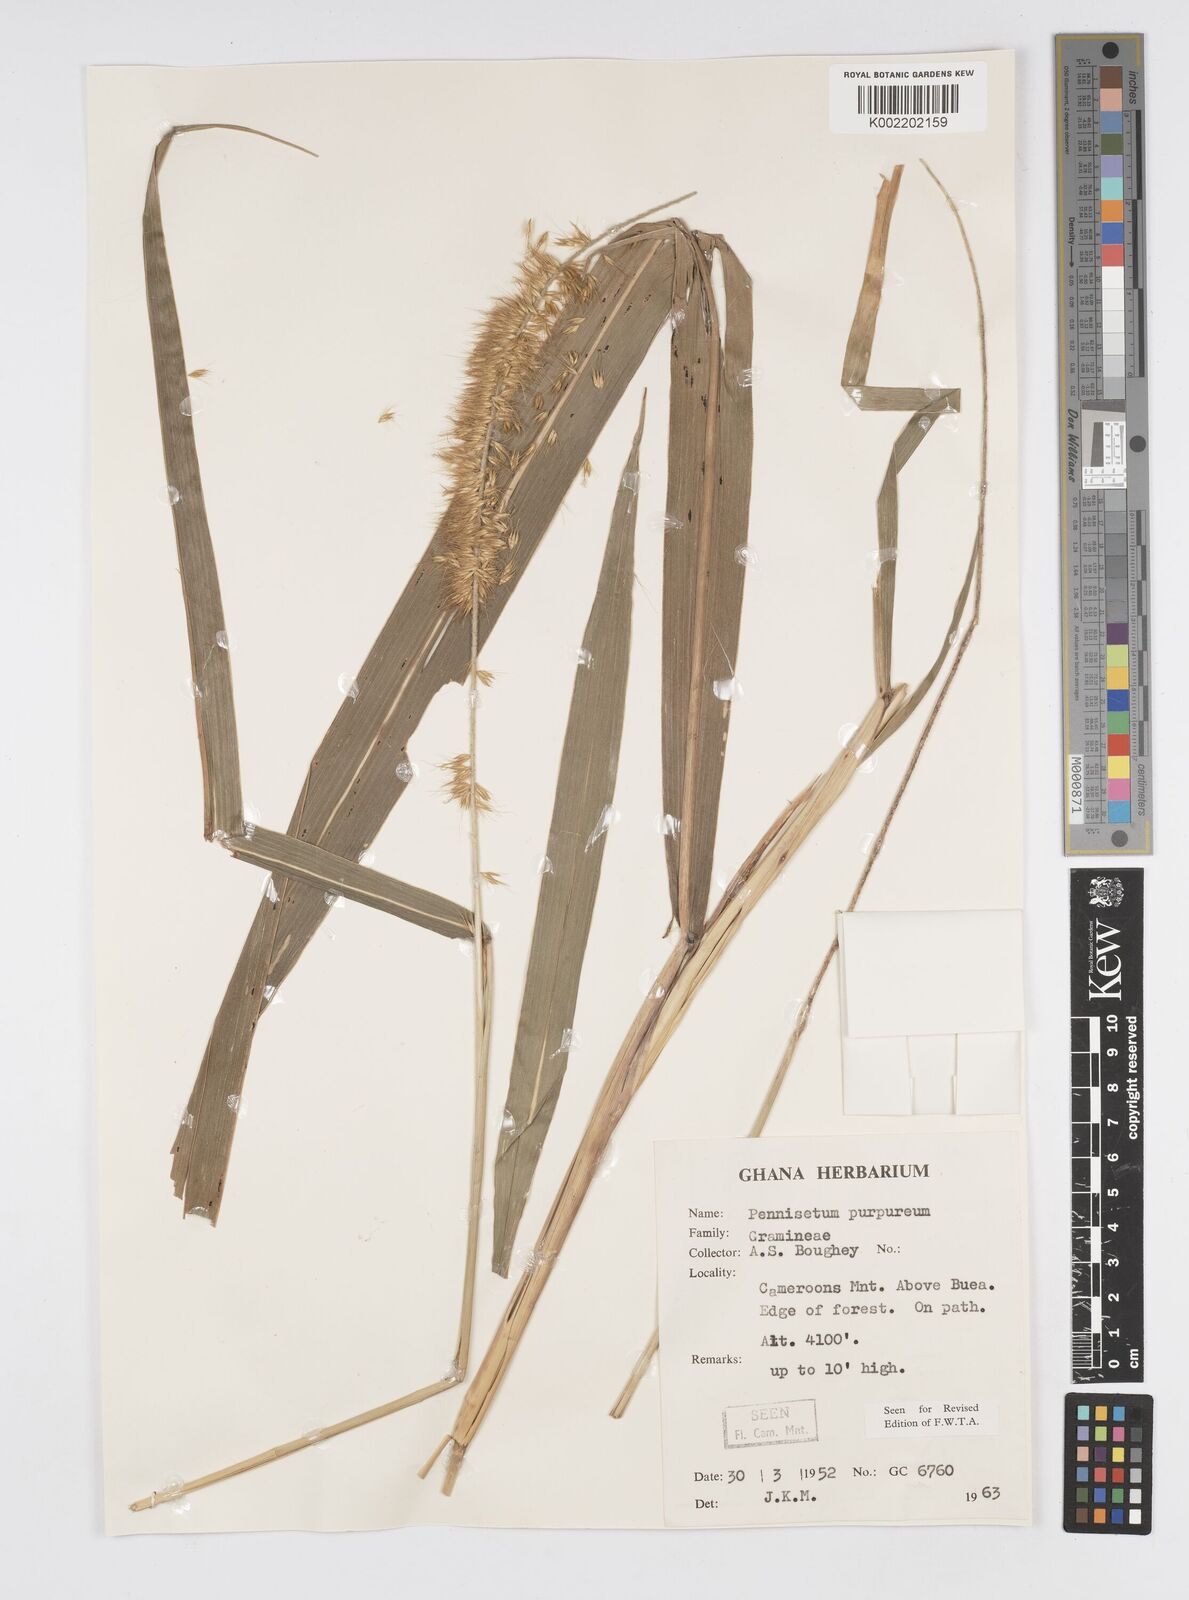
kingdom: Plantae
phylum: Tracheophyta
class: Liliopsida
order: Poales
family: Poaceae
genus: Cenchrus
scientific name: Cenchrus purpureus
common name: Elephant grass
